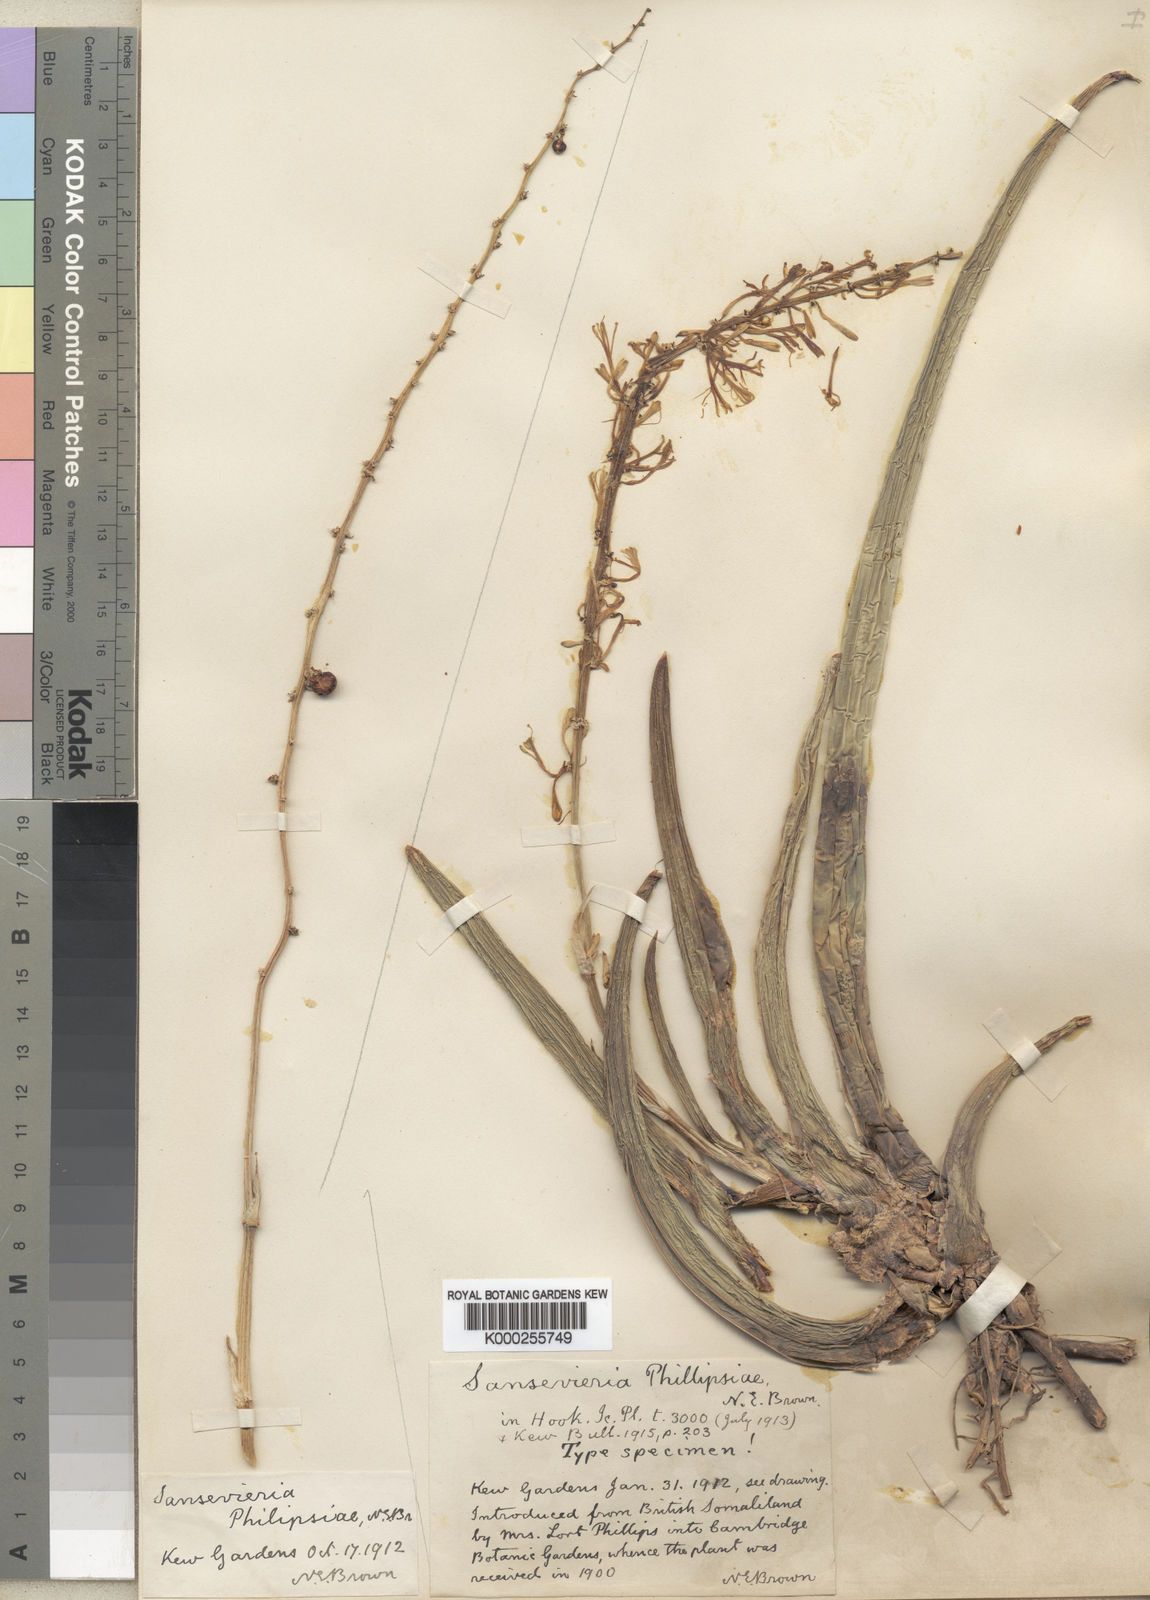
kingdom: Plantae
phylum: Tracheophyta
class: Liliopsida
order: Asparagales
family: Asparagaceae
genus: Dracaena
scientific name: Dracaena phillipsiae
